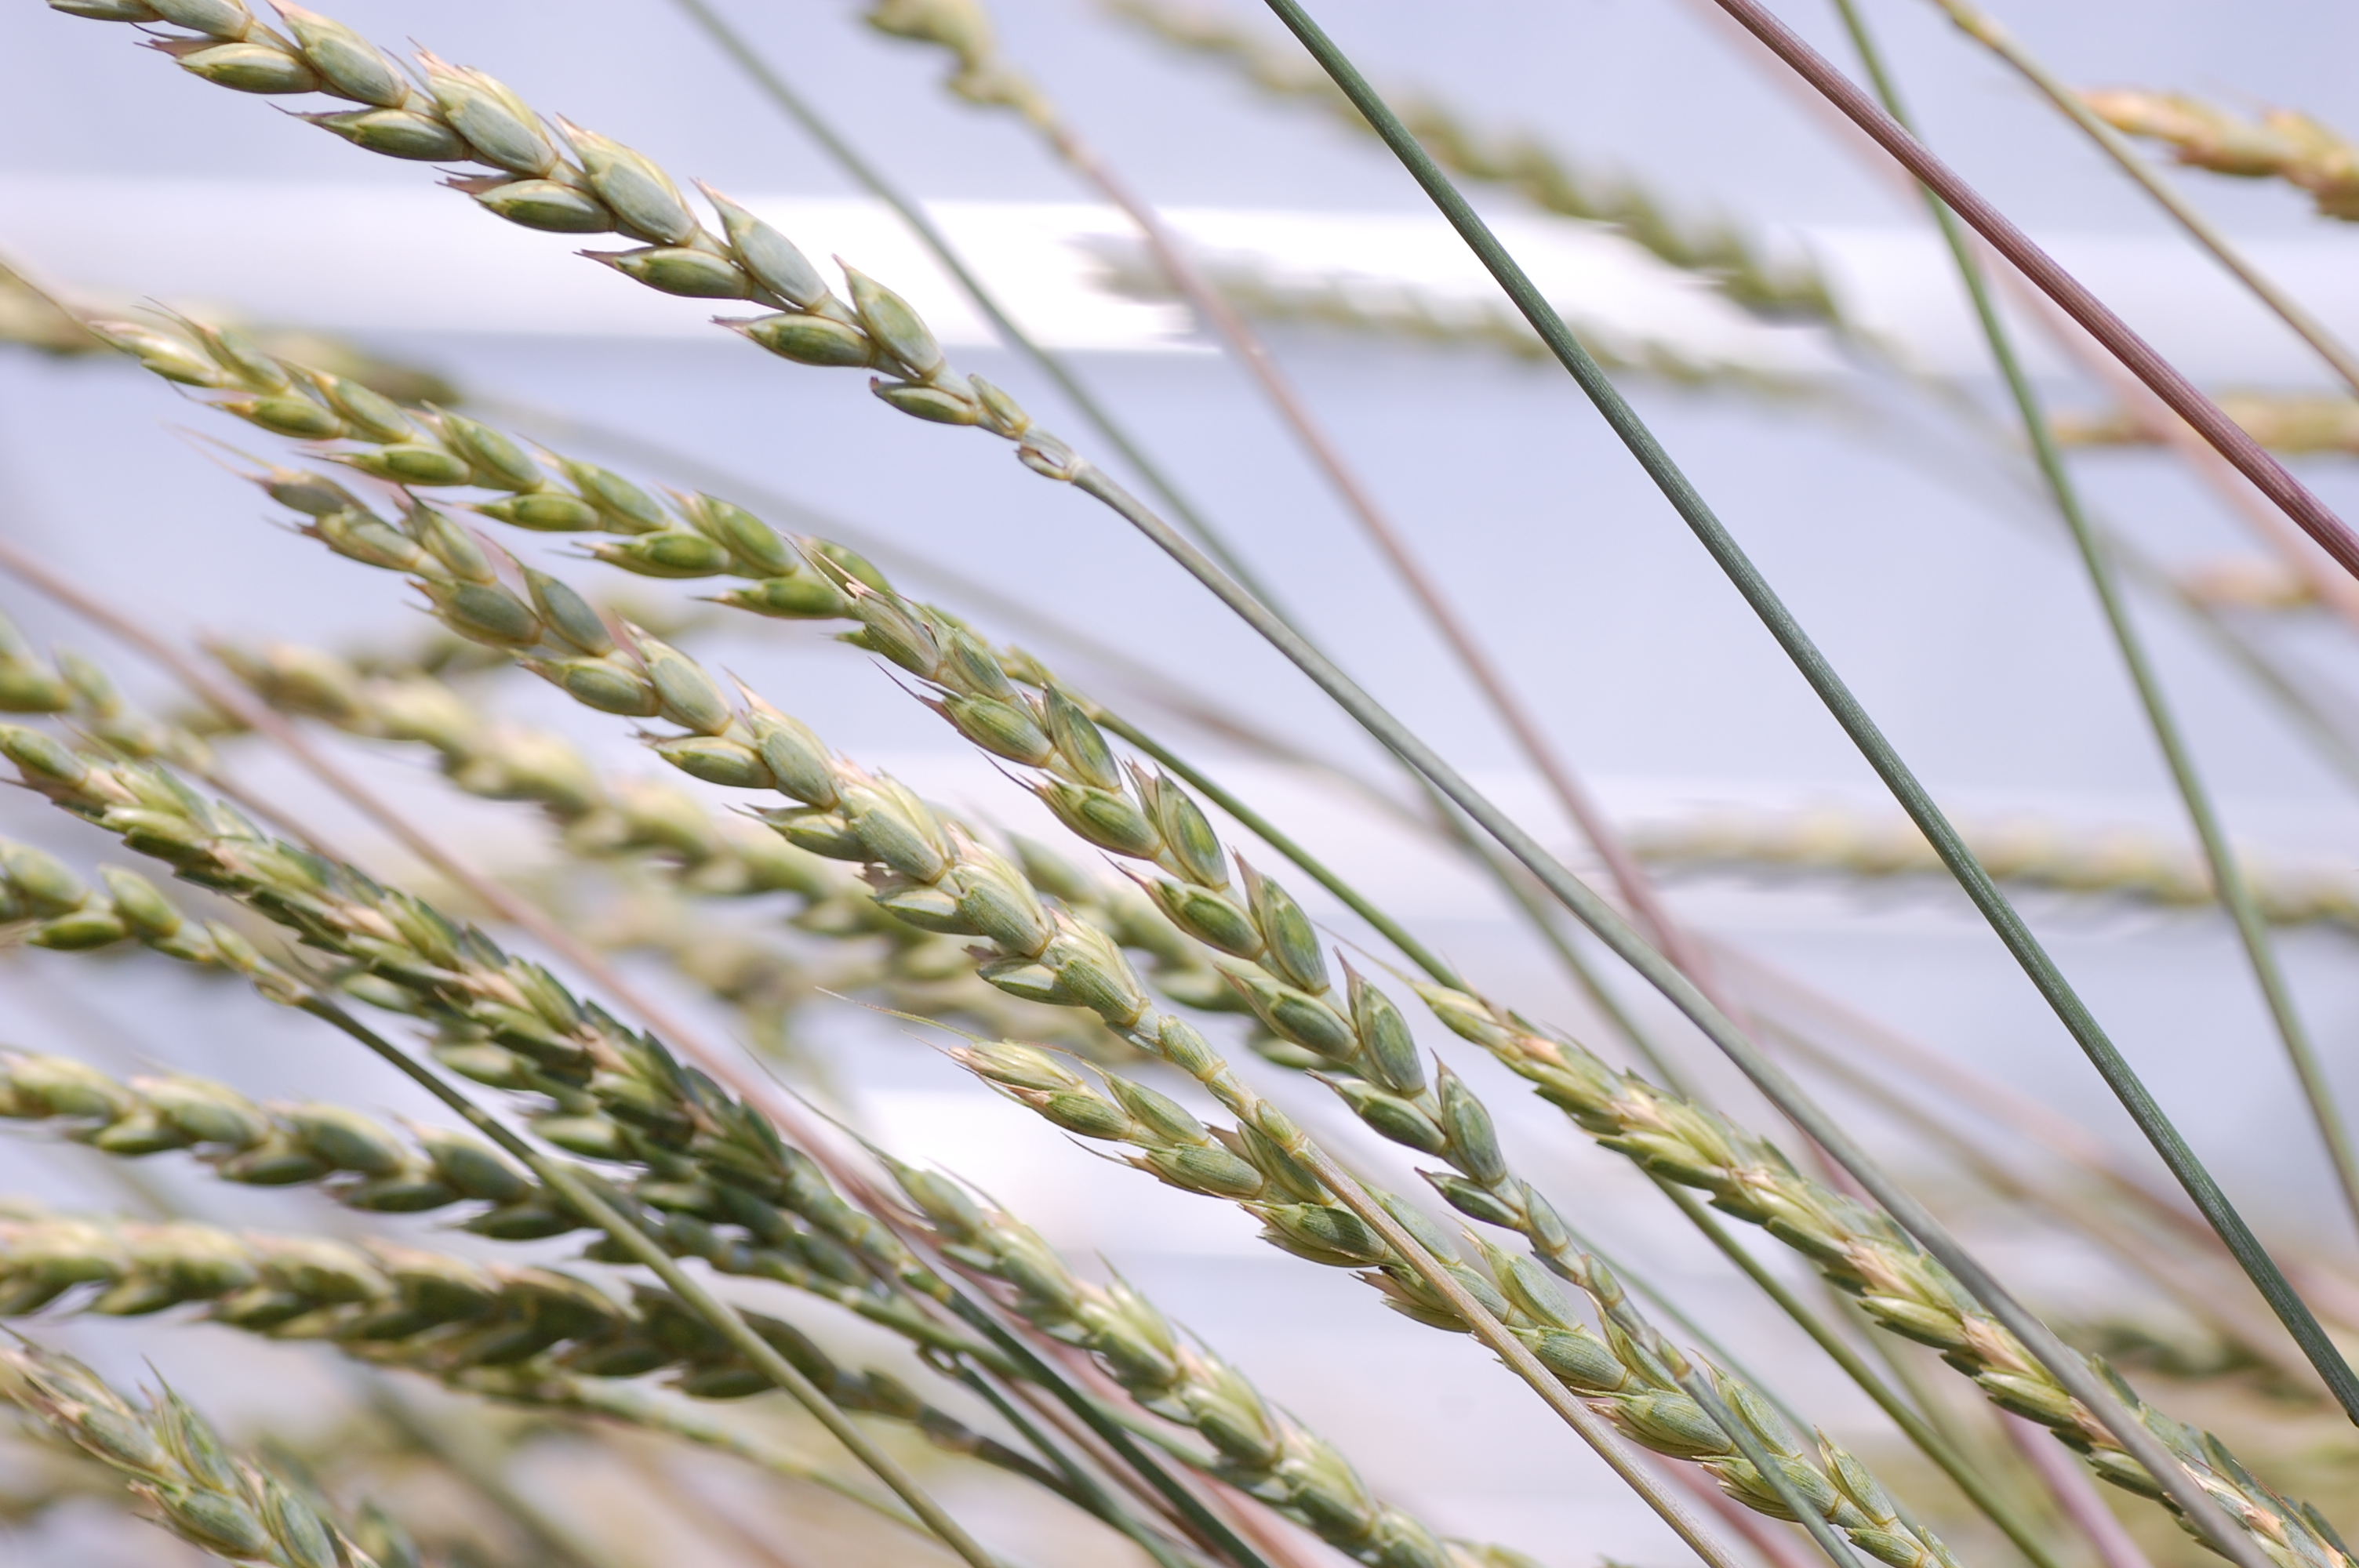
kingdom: Plantae
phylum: Tracheophyta
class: Liliopsida
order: Poales
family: Poaceae
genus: Triticum
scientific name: Triticum aestivum
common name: Common wheat
